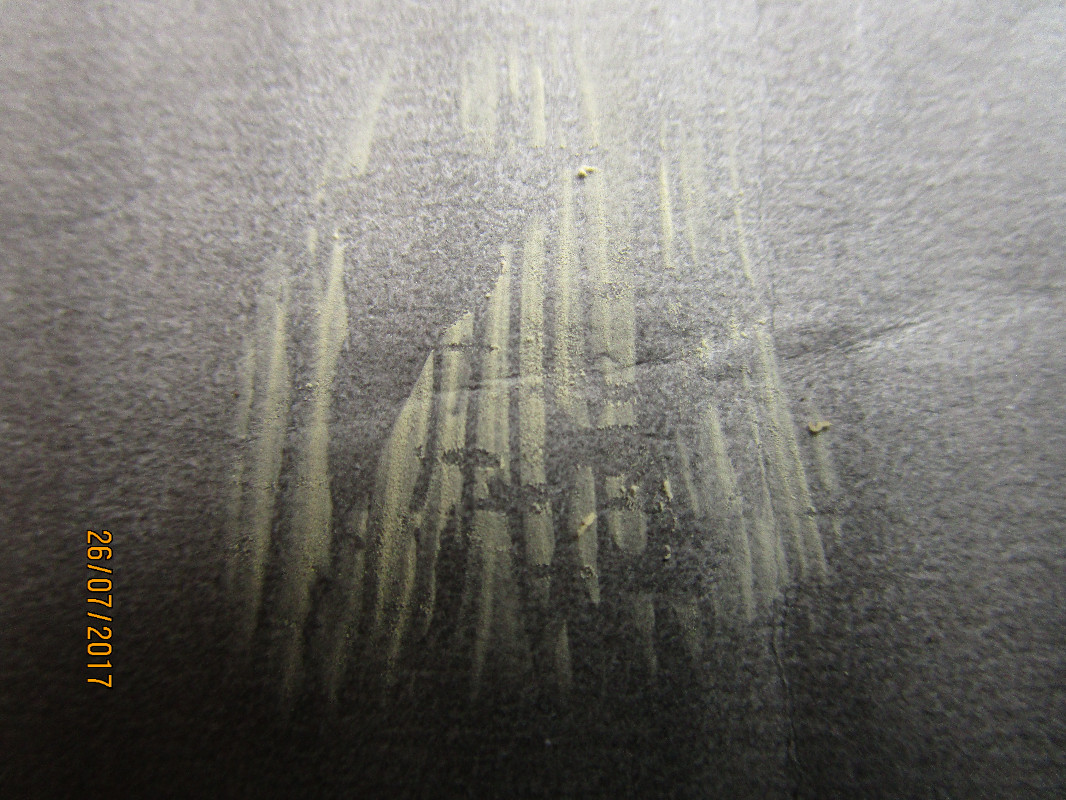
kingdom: Fungi
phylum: Basidiomycota
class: Agaricomycetes
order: Russulales
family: Russulaceae
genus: Russula
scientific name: Russula graveolens
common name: bugtet skørhat
